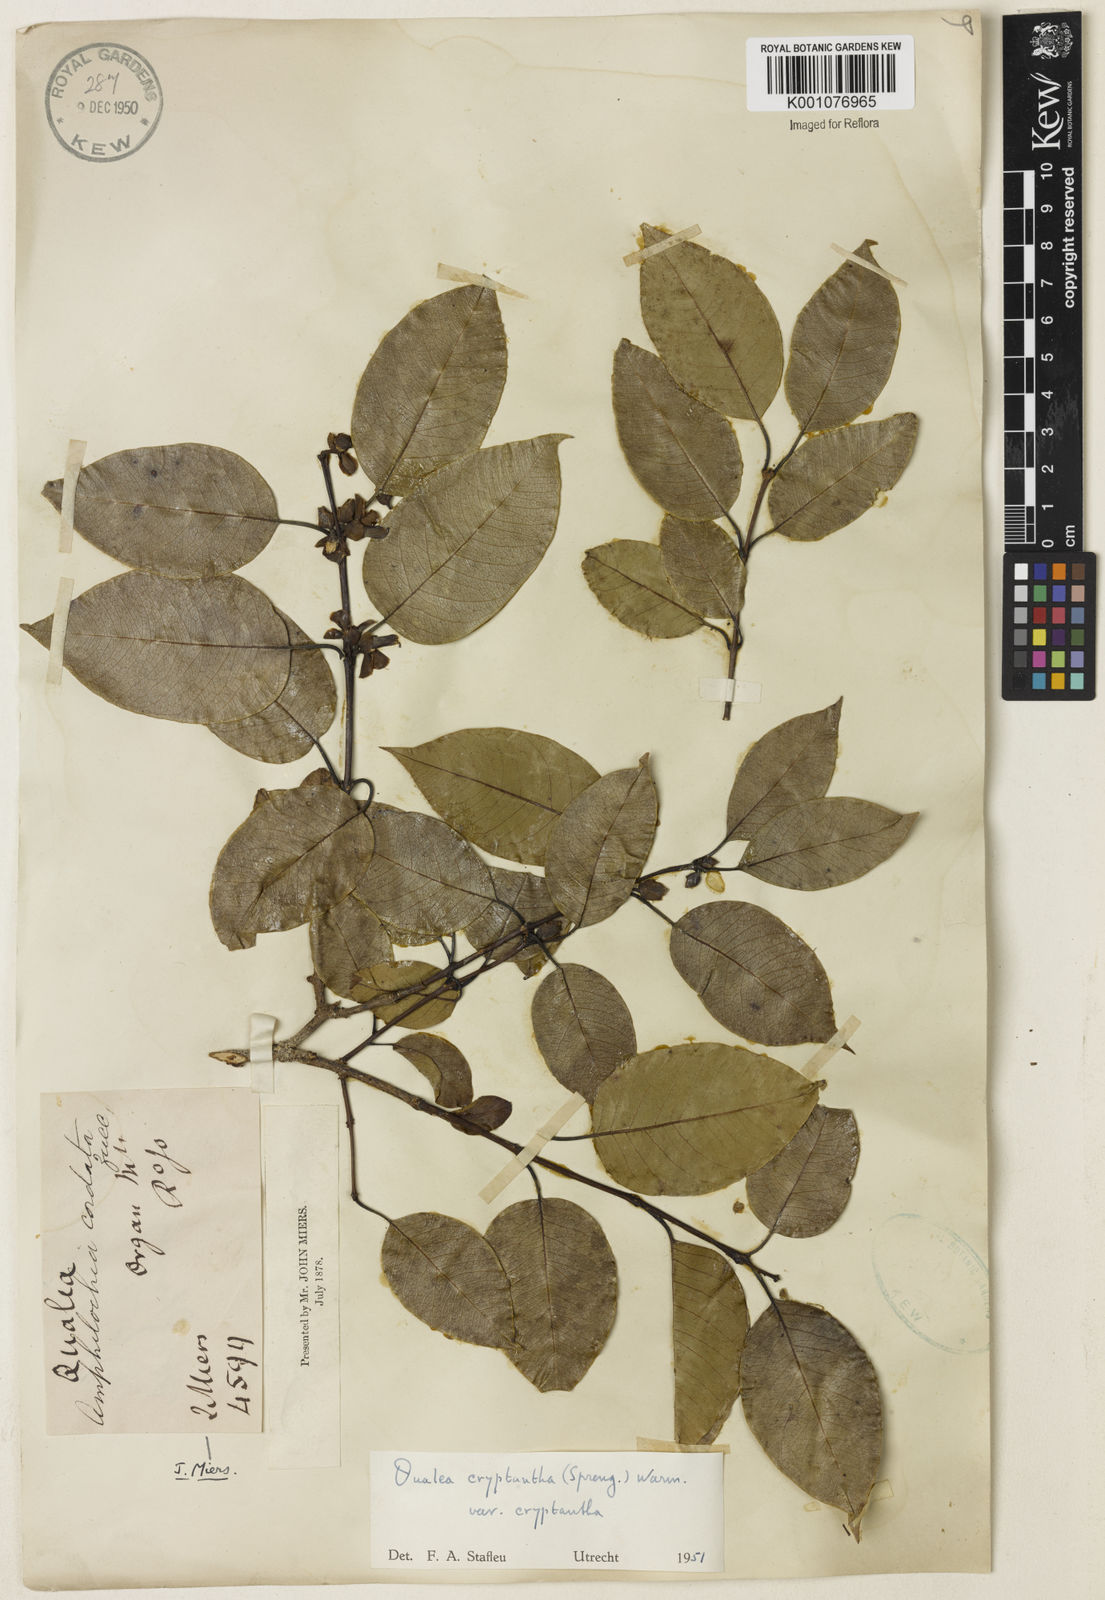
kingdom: Plantae
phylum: Tracheophyta
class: Magnoliopsida
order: Myrtales
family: Vochysiaceae
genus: Qualea
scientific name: Qualea cryptantha
